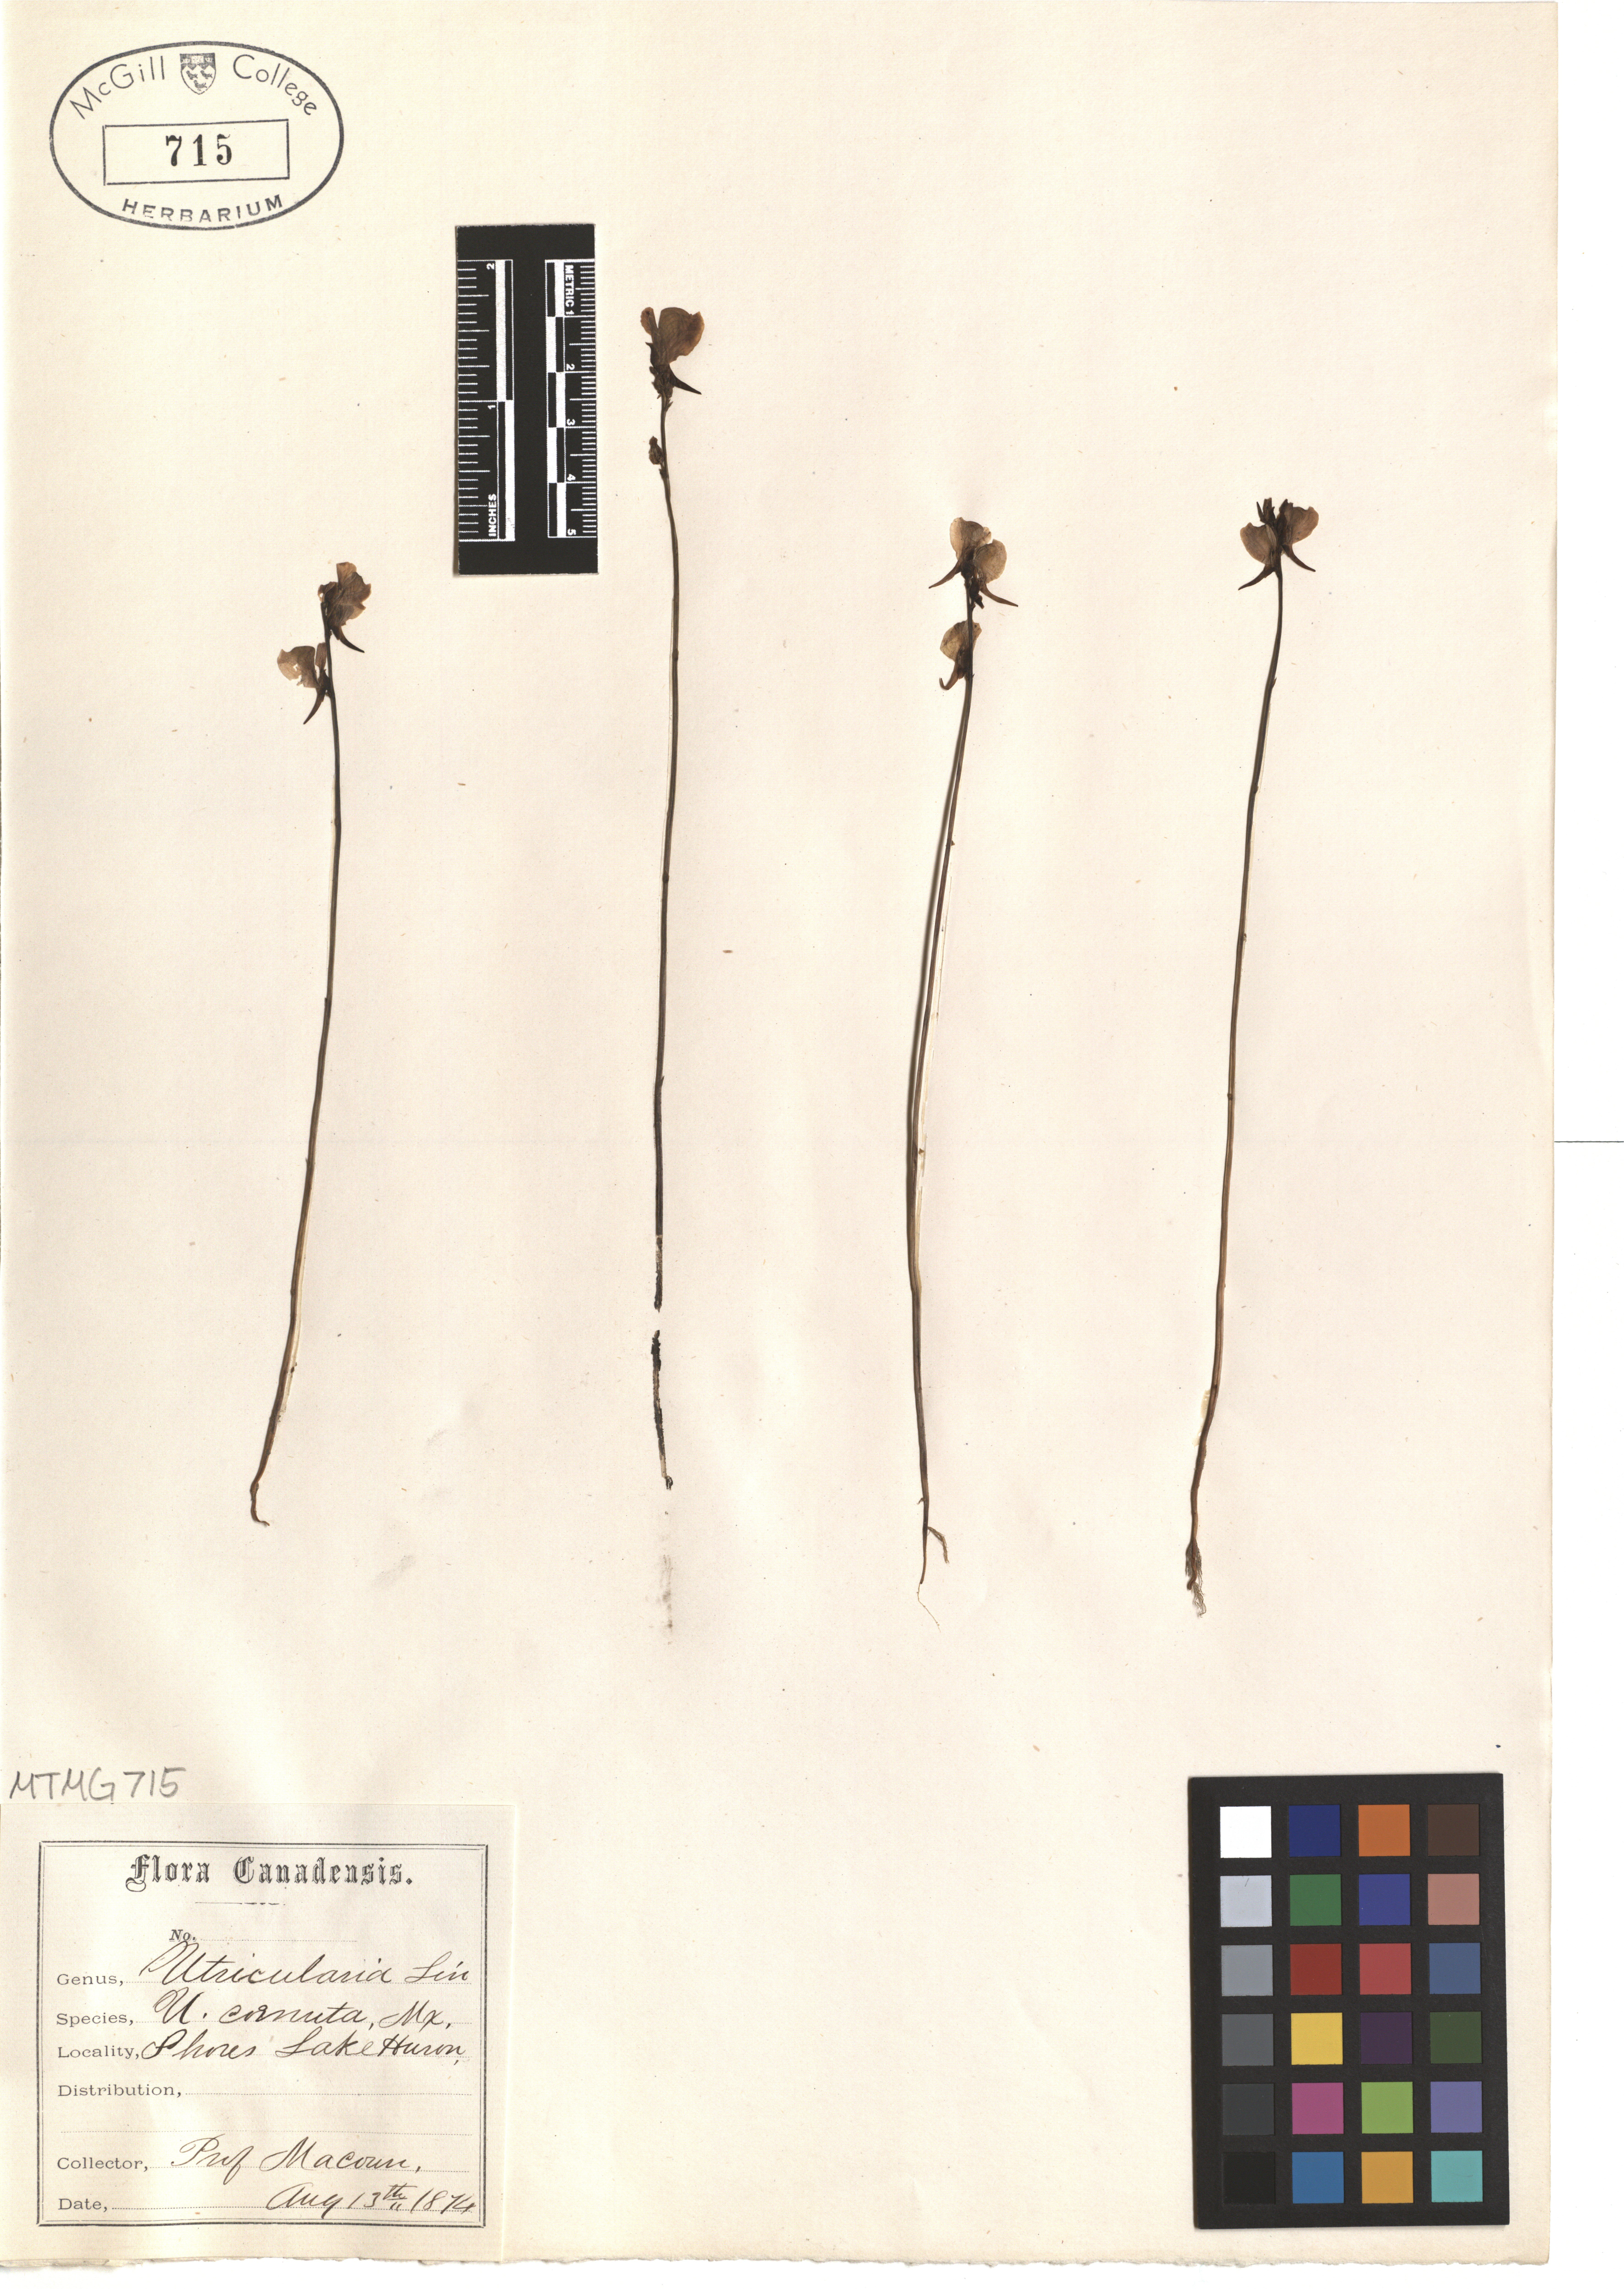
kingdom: Plantae
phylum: Tracheophyta
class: Magnoliopsida
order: Lamiales
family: Lentibulariaceae
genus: Utricularia
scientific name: Utricularia cornuta
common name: Horned bladderwort
